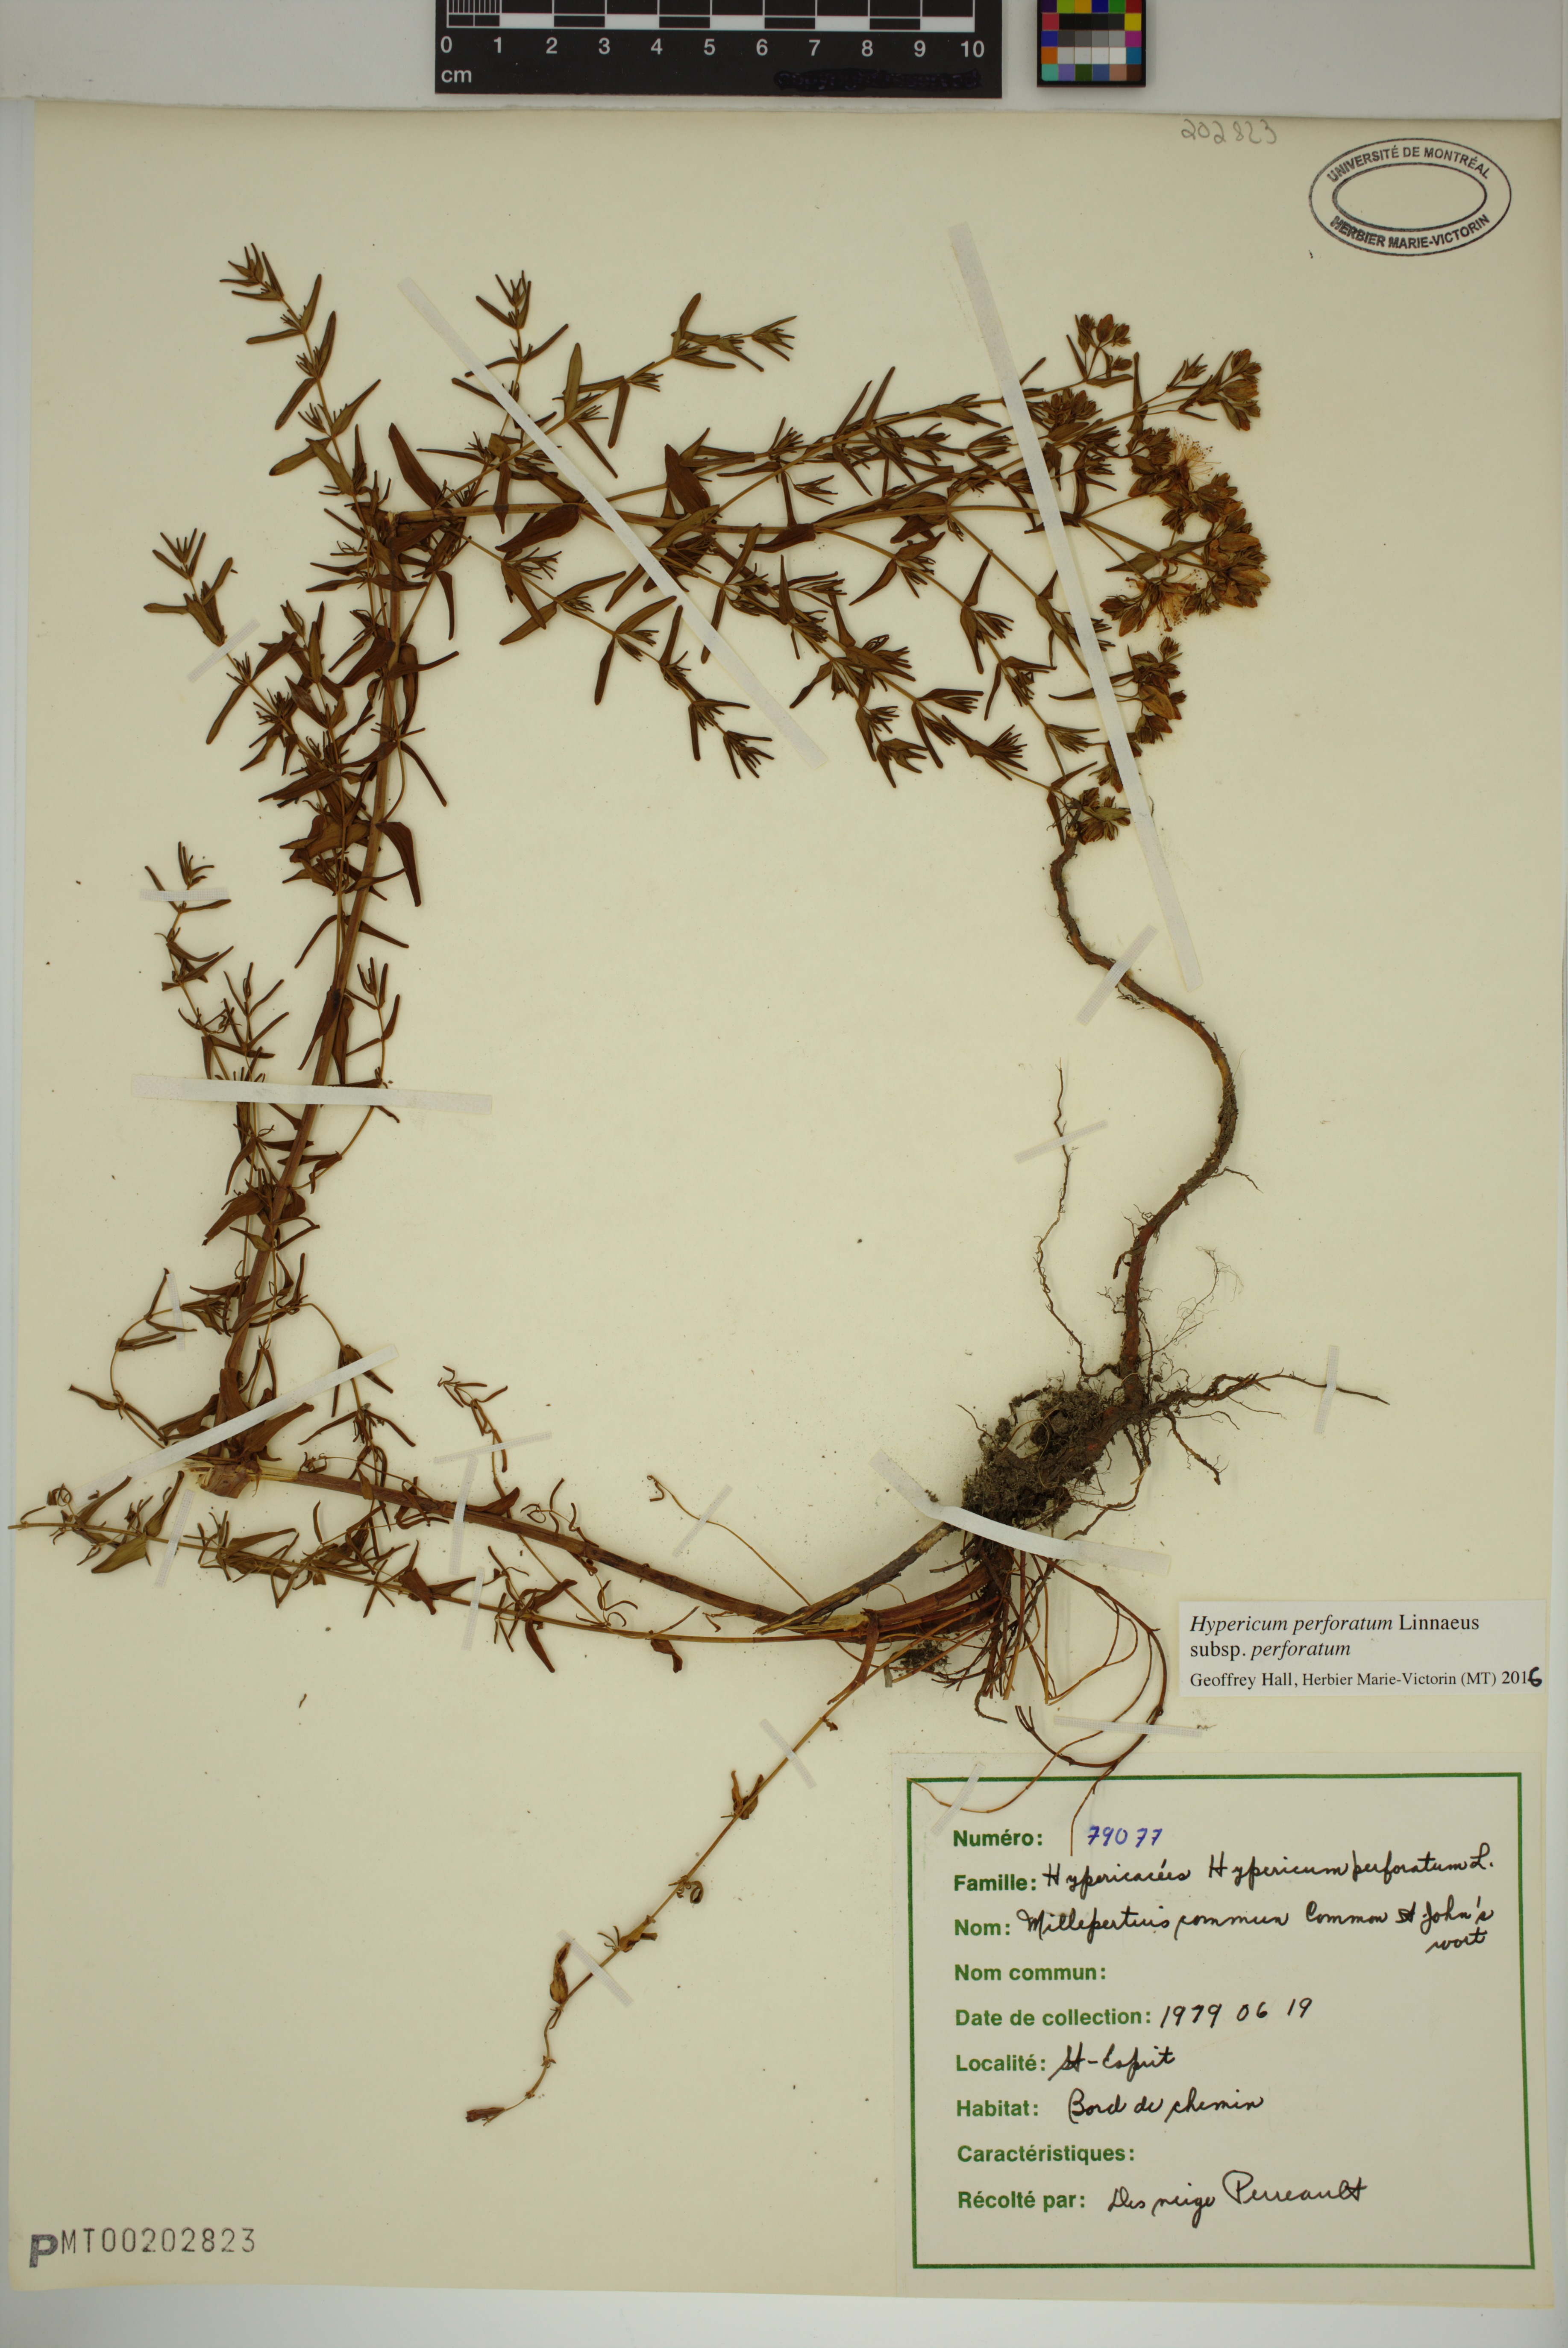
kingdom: Plantae
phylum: Tracheophyta
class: Magnoliopsida
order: Malpighiales
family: Hypericaceae
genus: Hypericum
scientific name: Hypericum perforatum
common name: Common st. johnswort
